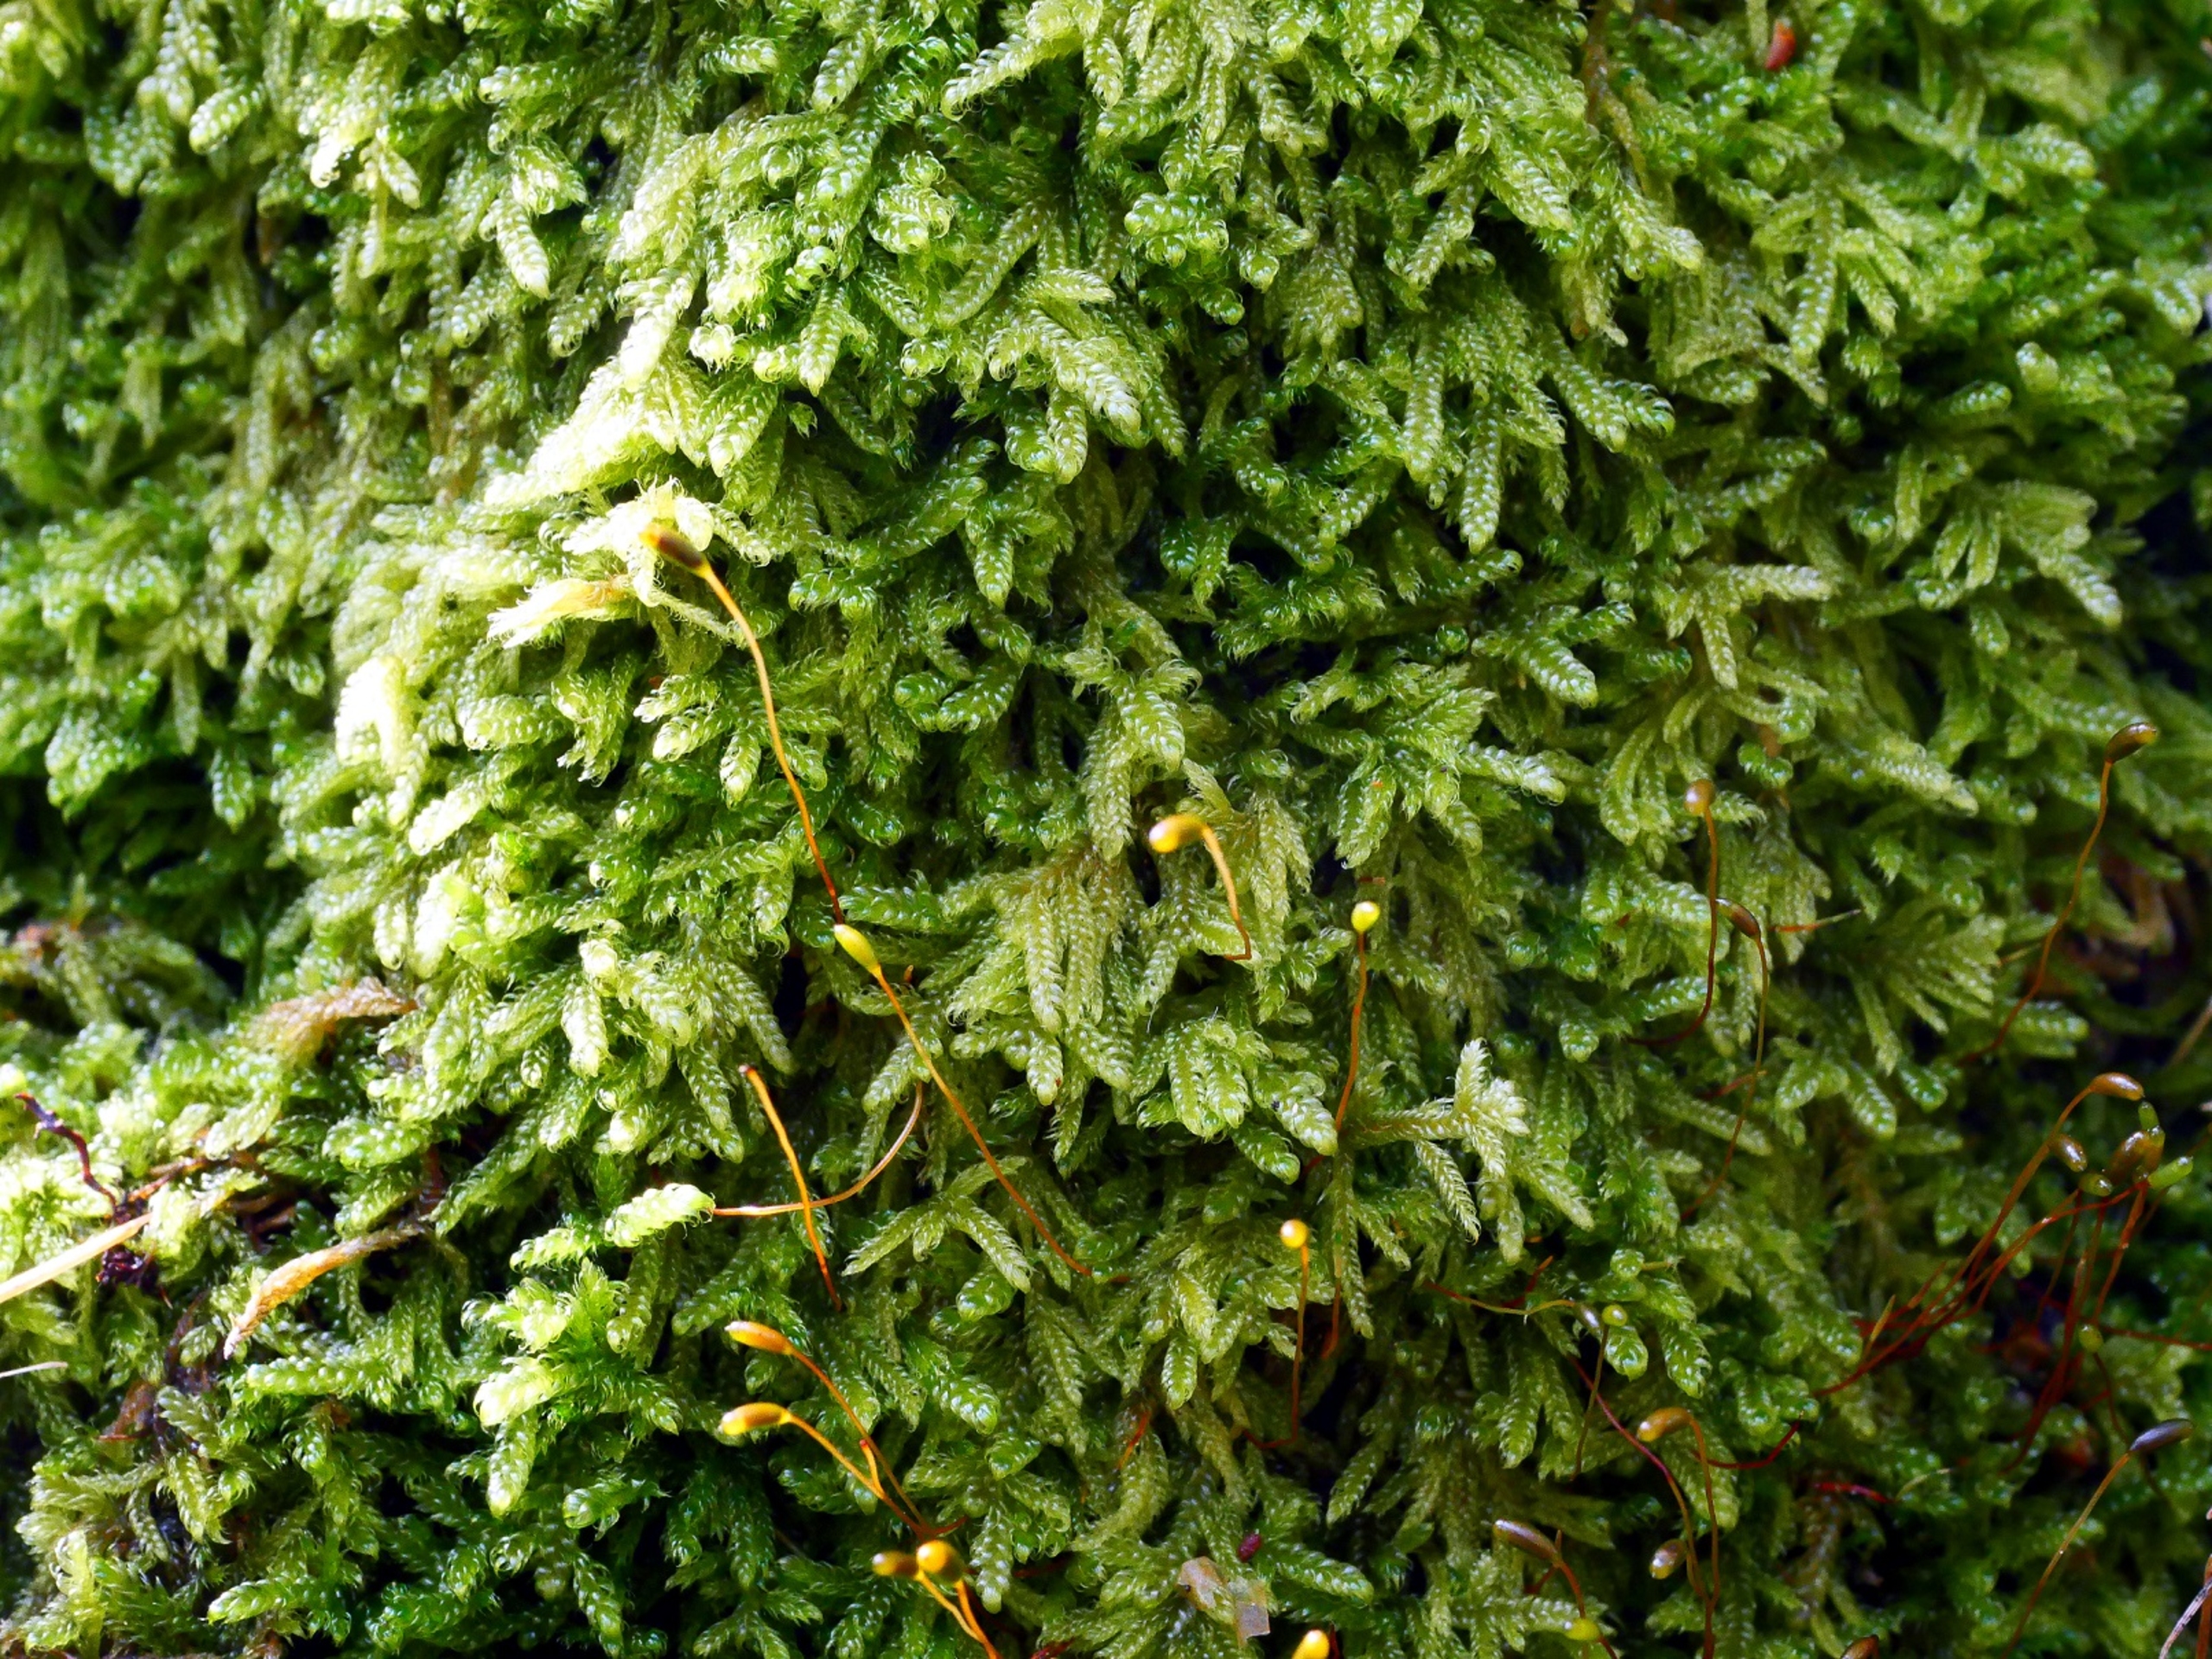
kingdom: Plantae
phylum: Bryophyta
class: Bryopsida
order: Hypnales
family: Hypnaceae
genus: Hypnum
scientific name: Hypnum andoi
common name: Vortet cypresmos
